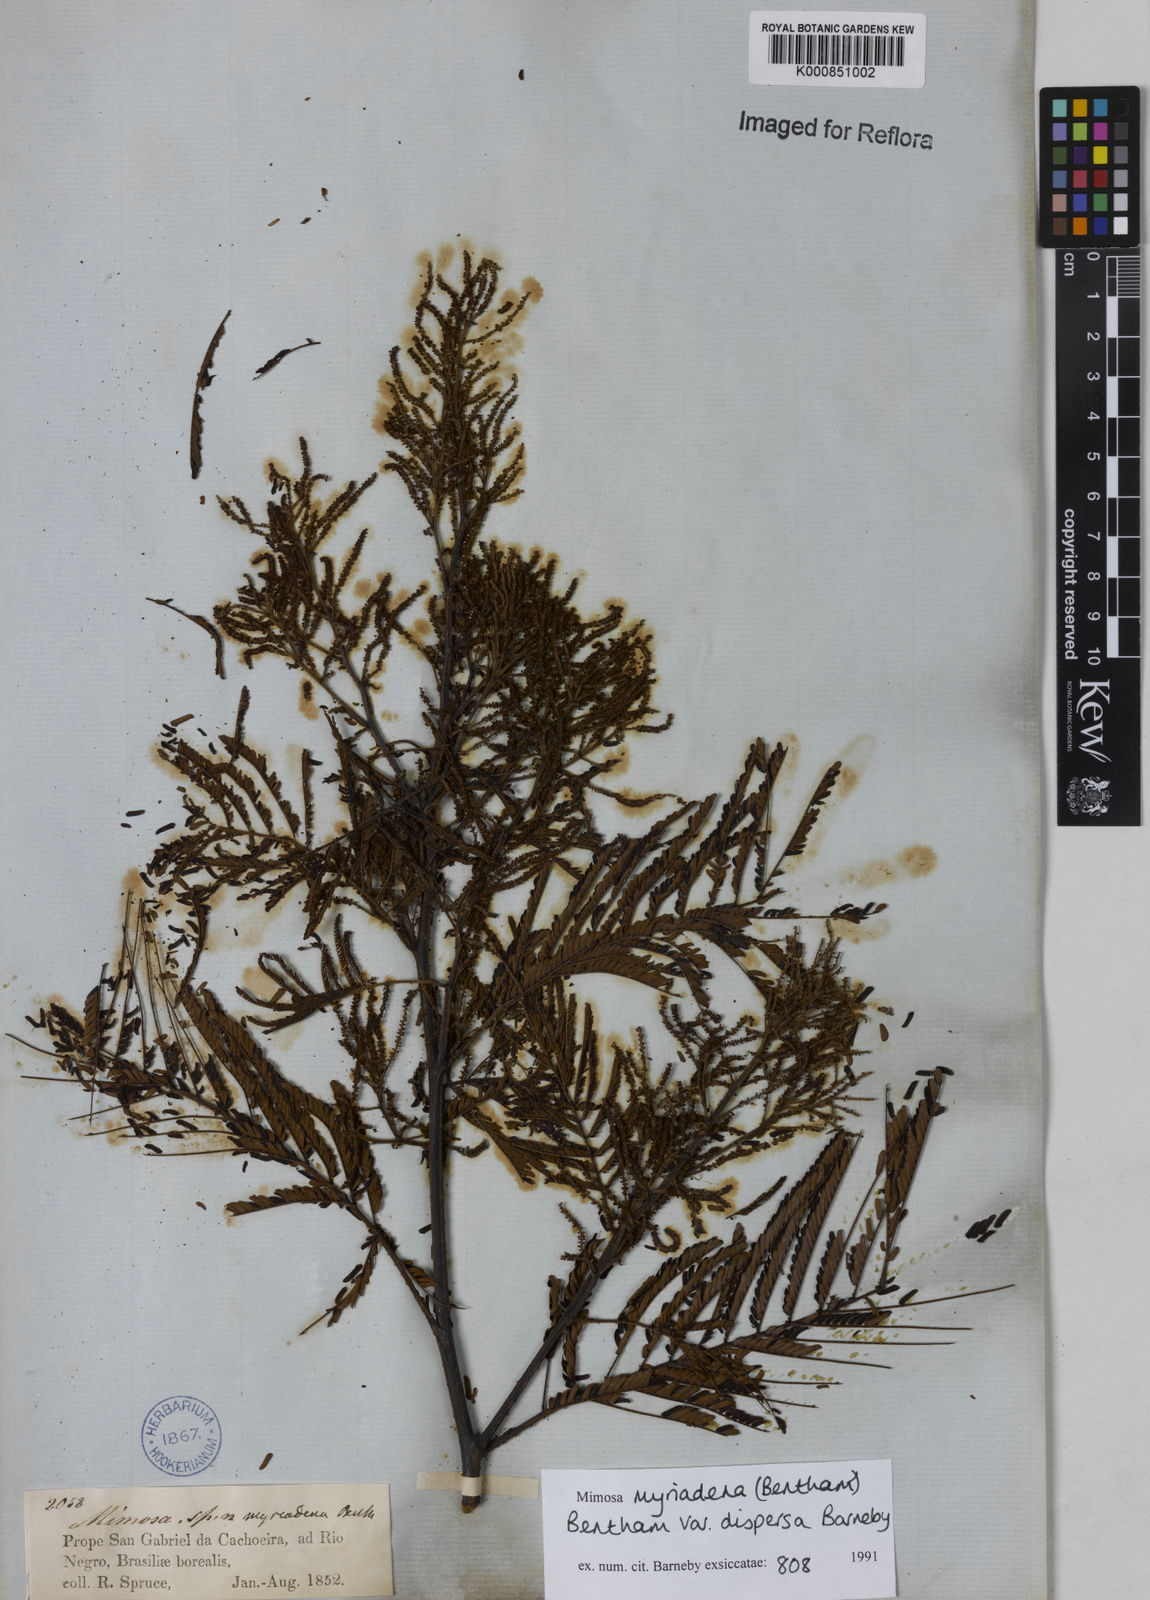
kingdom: Plantae
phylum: Tracheophyta
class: Magnoliopsida
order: Fabales
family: Fabaceae
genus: Mimosa
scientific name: Mimosa myriadenia
